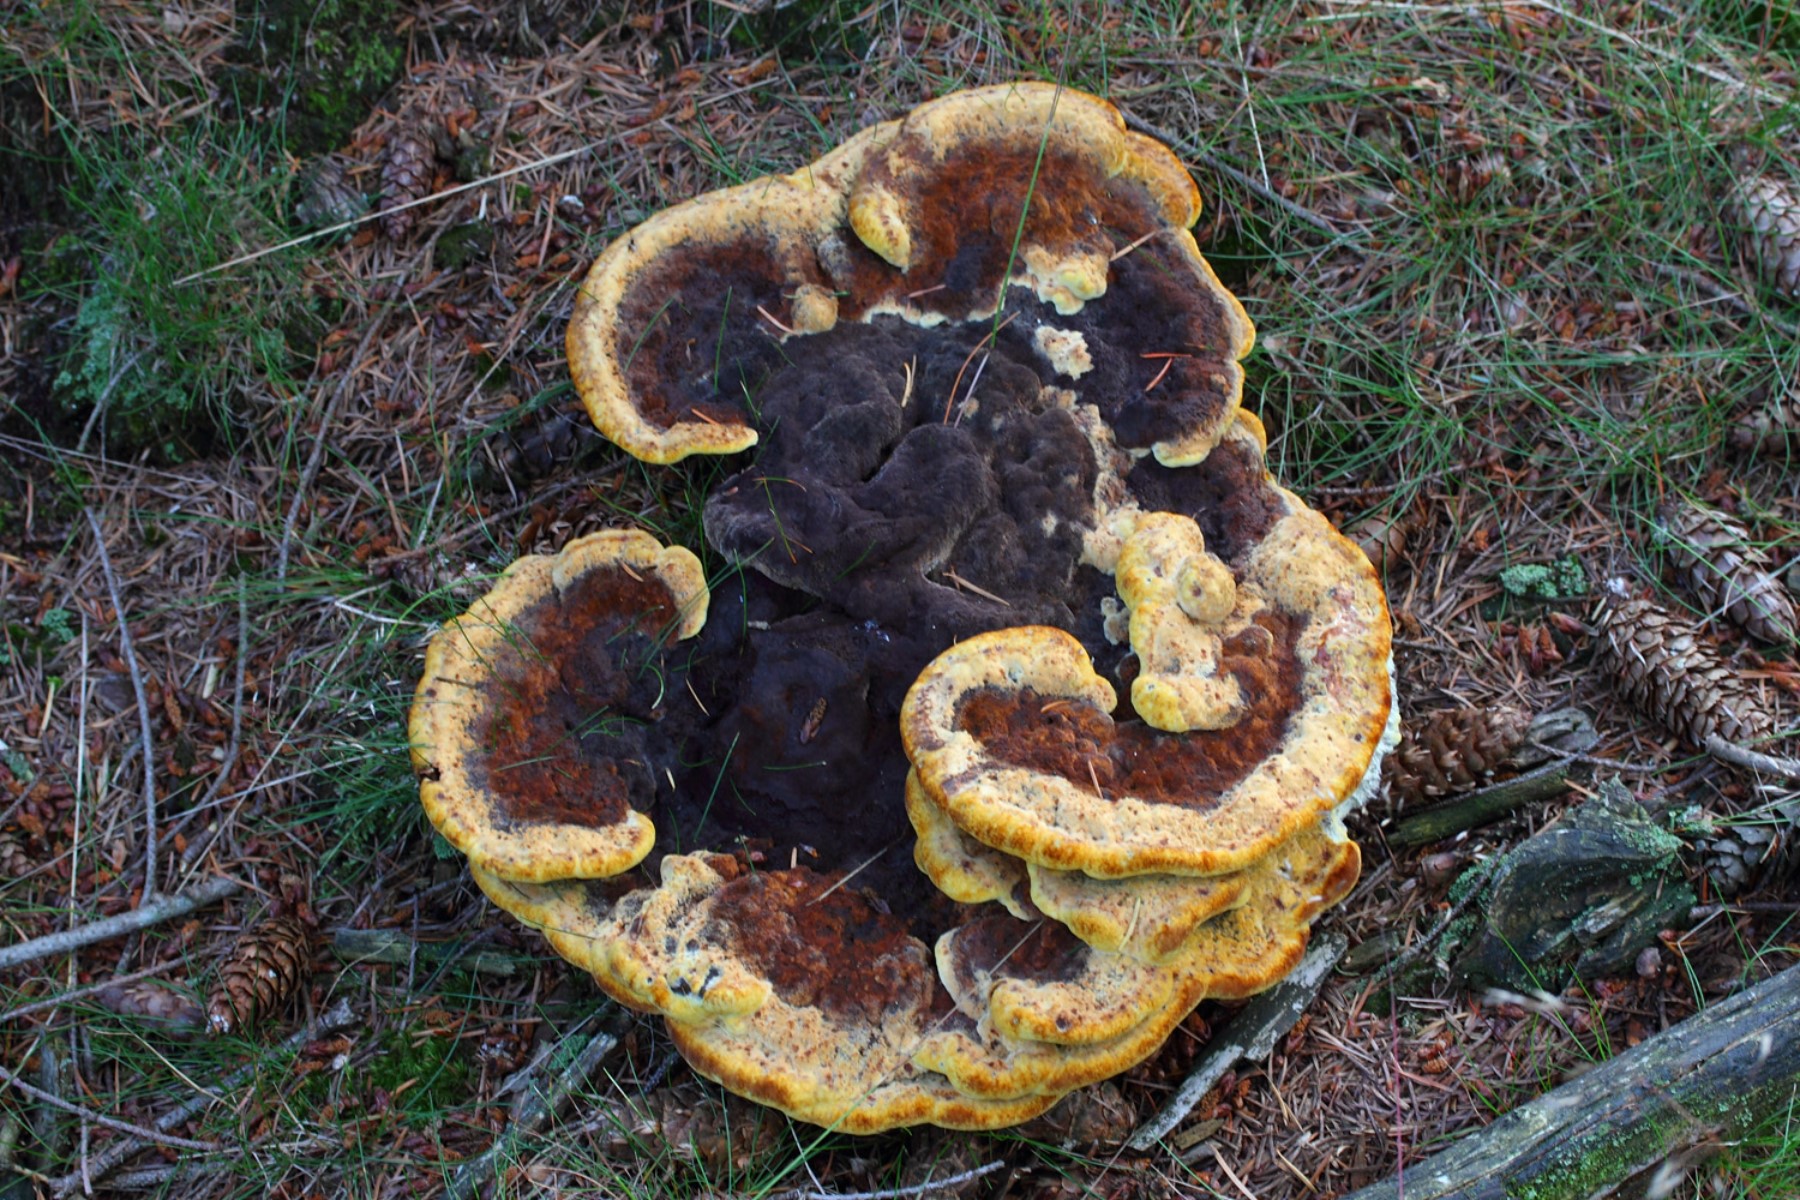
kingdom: Fungi
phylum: Basidiomycota
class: Agaricomycetes
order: Polyporales
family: Laetiporaceae
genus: Phaeolus
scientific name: Phaeolus schweinitzii
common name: brunporesvamp
